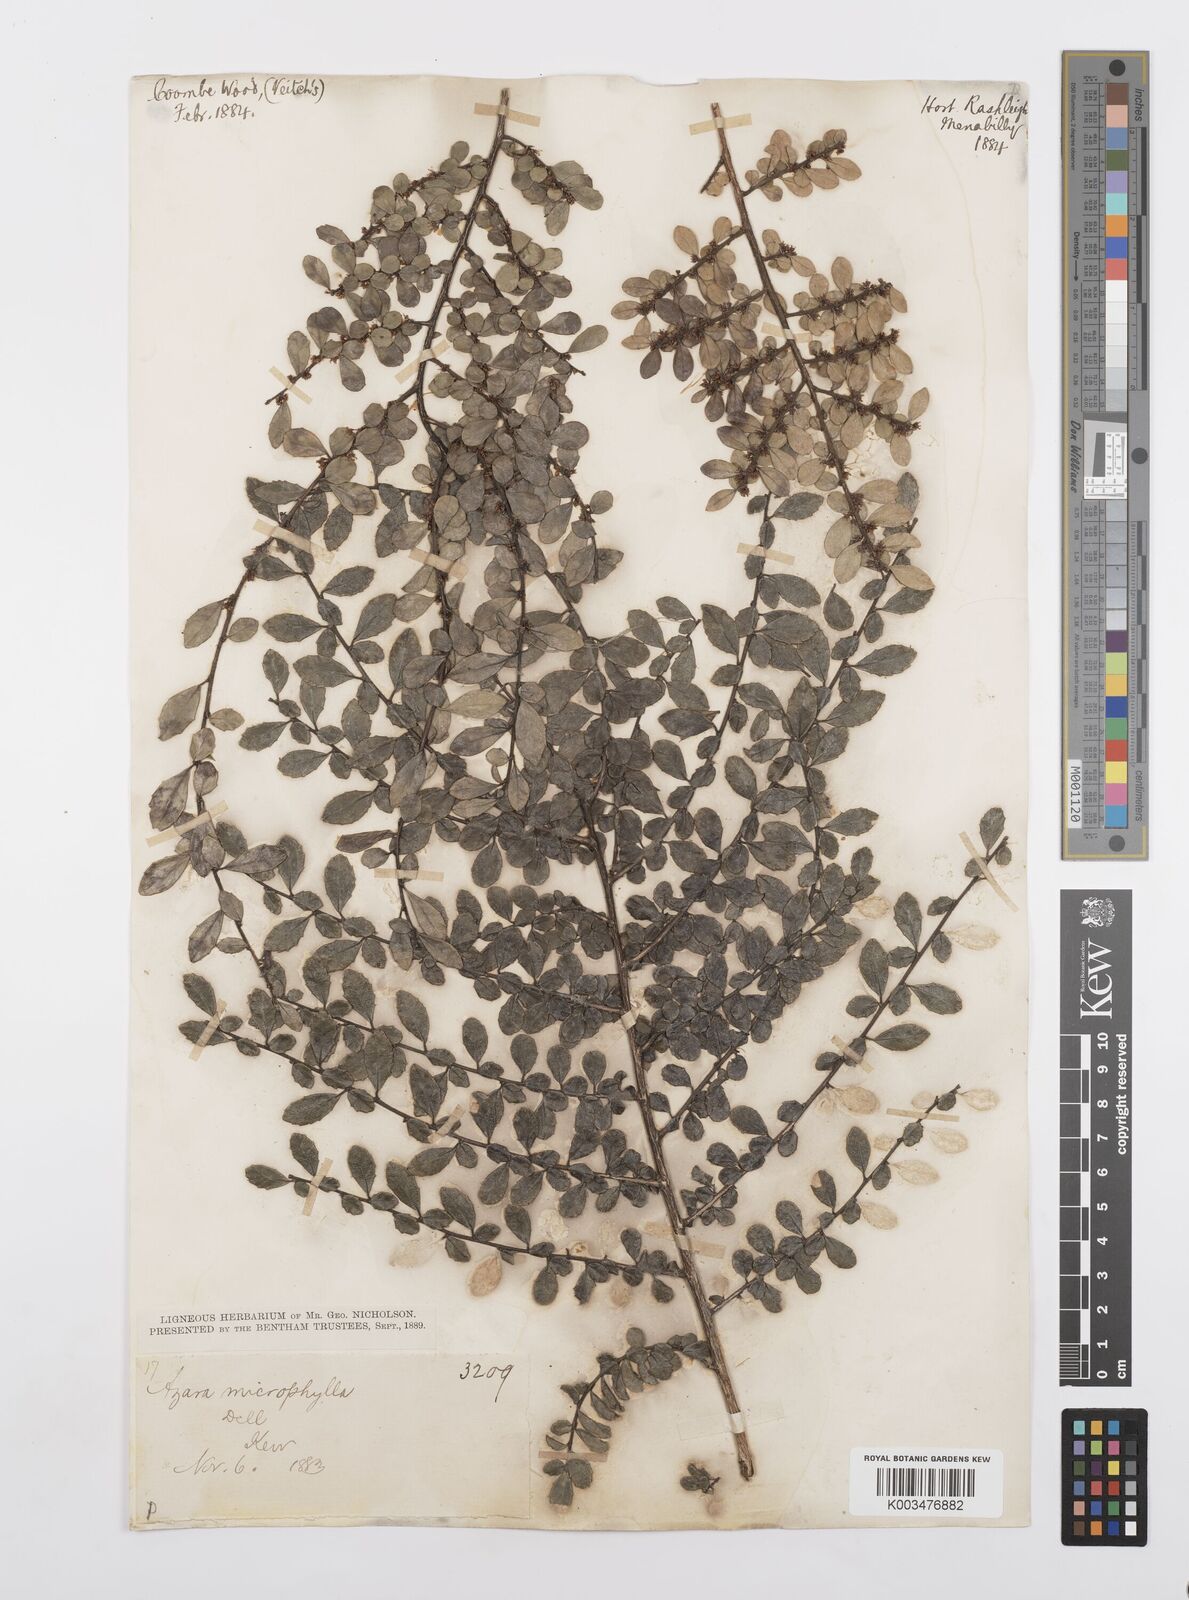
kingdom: Plantae
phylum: Tracheophyta
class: Magnoliopsida
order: Malpighiales
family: Salicaceae
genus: Azara
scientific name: Azara microphylla
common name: Box-leaf azara
